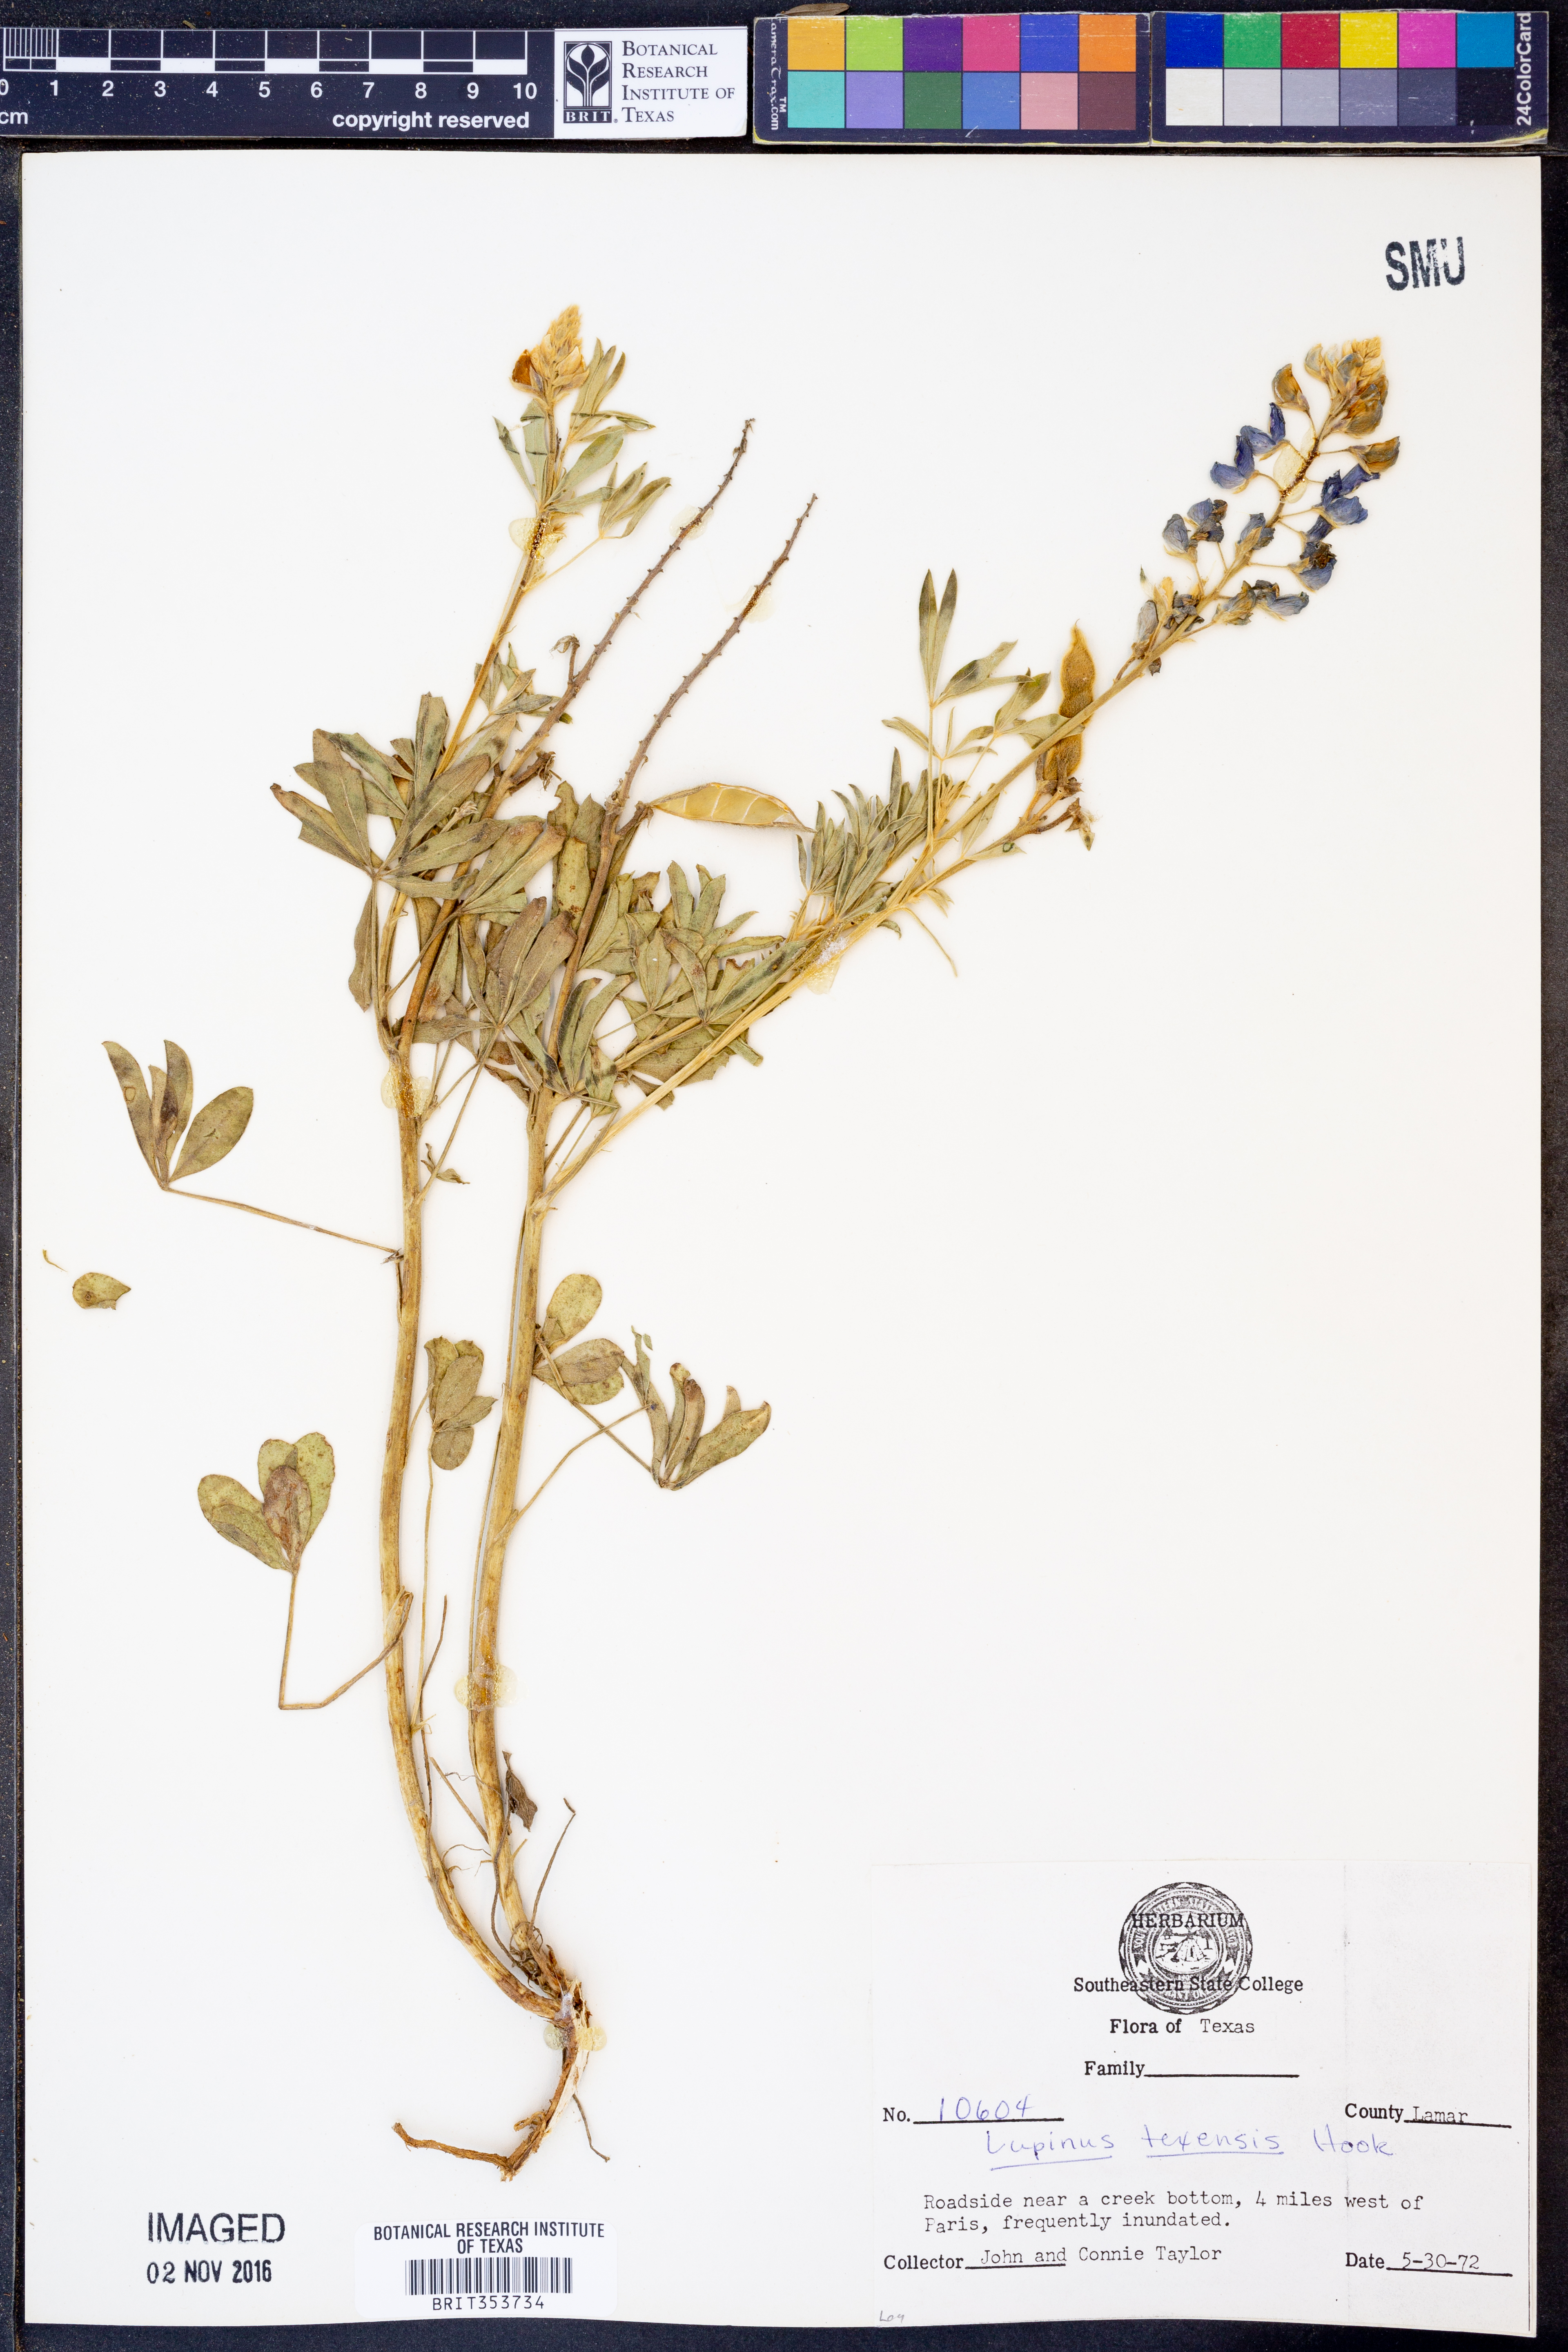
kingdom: Plantae
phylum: Tracheophyta
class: Magnoliopsida
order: Fabales
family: Fabaceae
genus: Lupinus
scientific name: Lupinus texensis
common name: Texas bluebonnet
